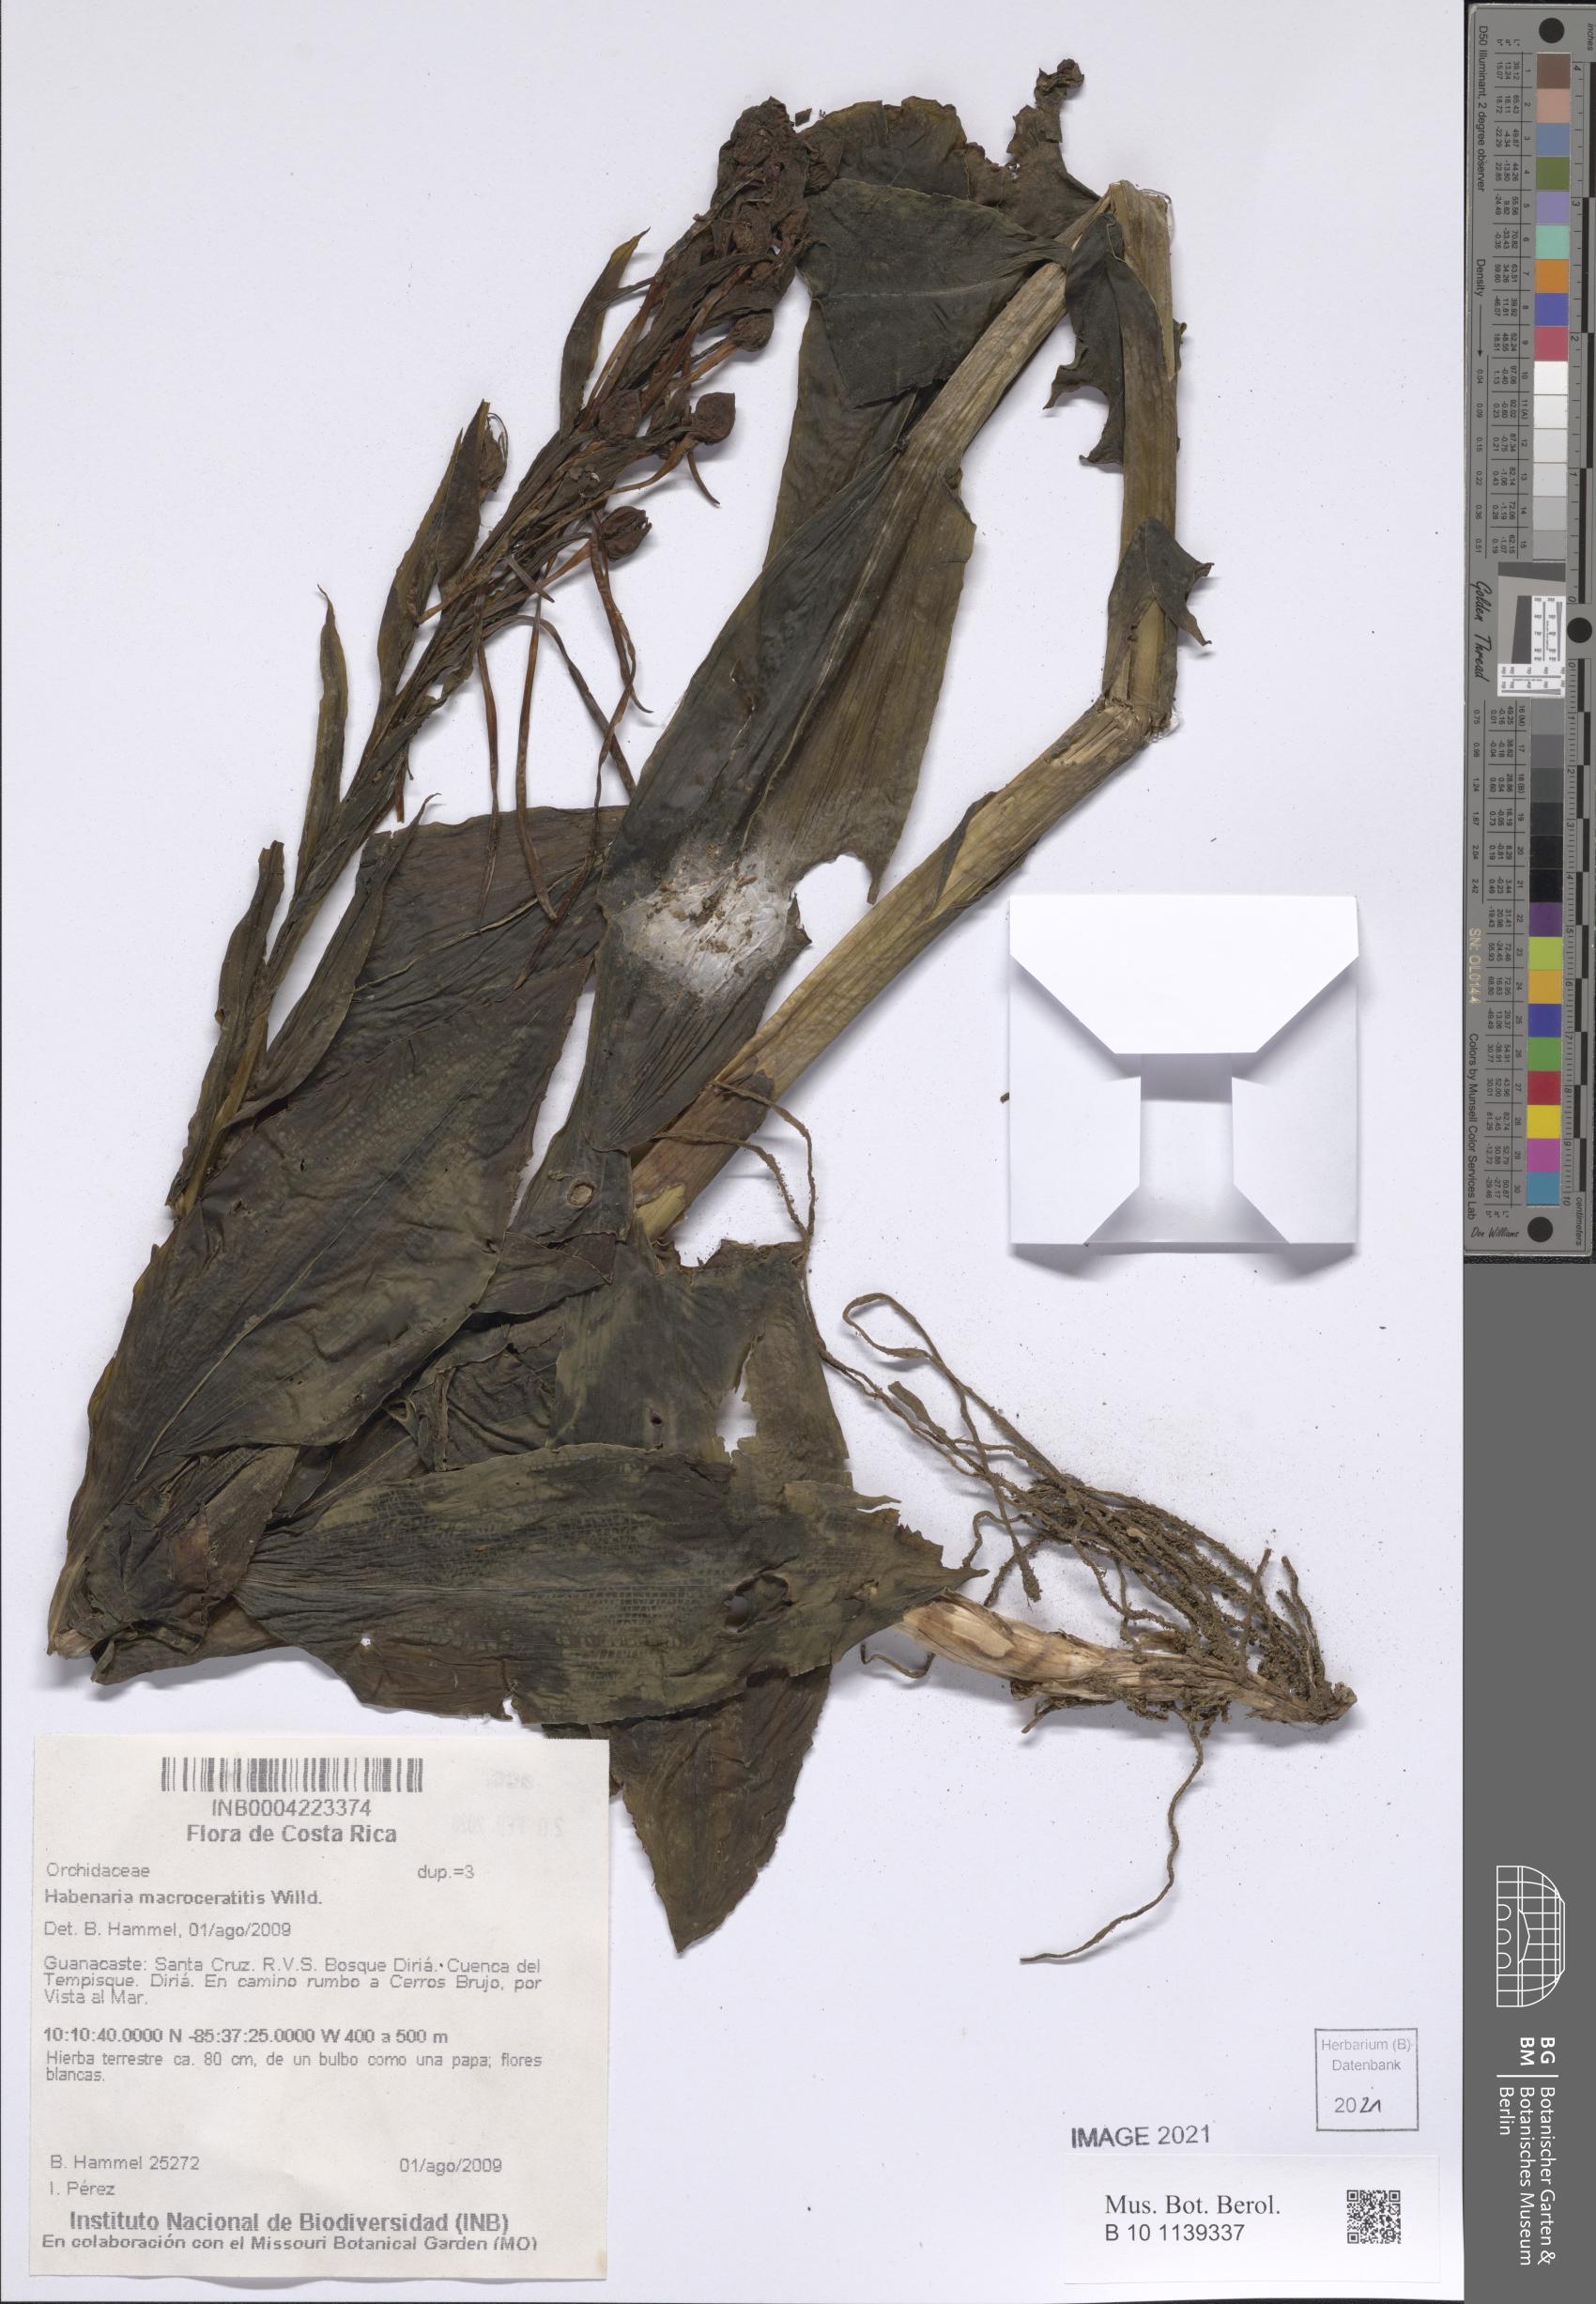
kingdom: Plantae
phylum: Tracheophyta
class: Liliopsida
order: Asparagales
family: Orchidaceae
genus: Habenaria
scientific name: Habenaria macroceratitis
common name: Big-horn bog orchid
